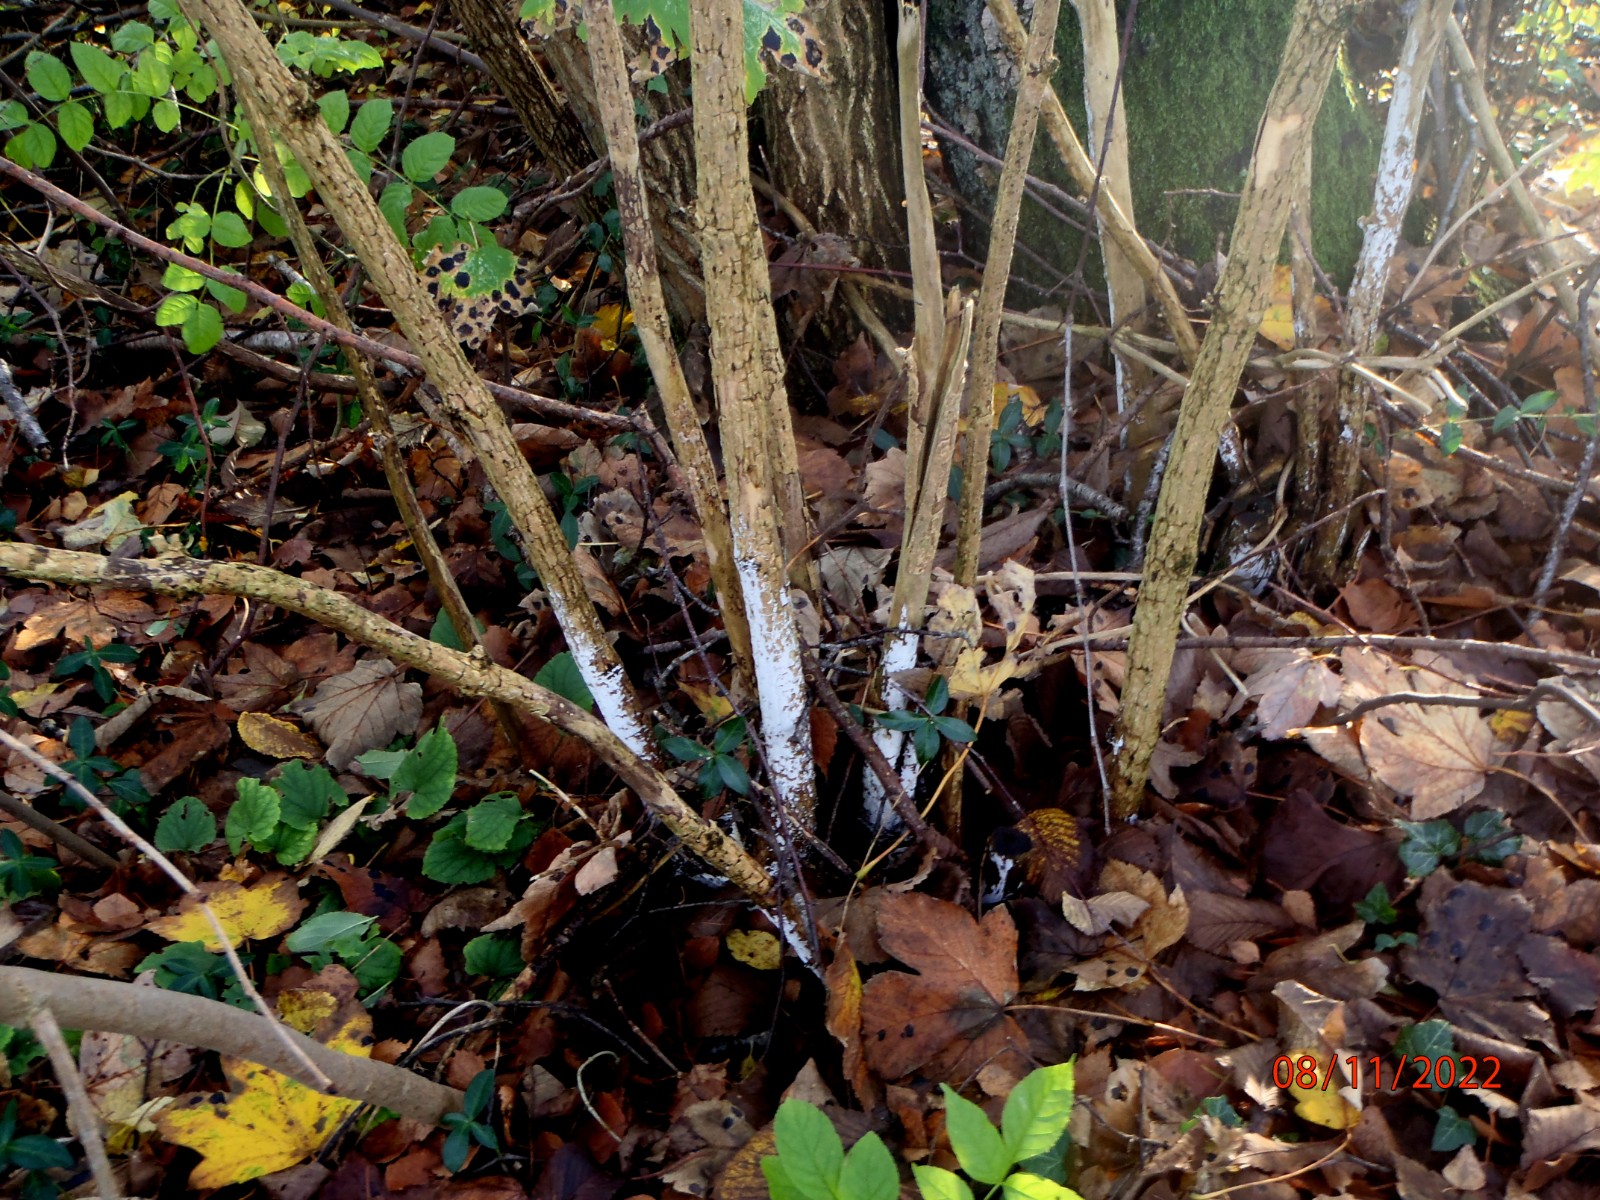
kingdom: Fungi
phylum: Basidiomycota
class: Agaricomycetes
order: Corticiales
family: Corticiaceae
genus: Lyomyces
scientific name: Lyomyces sambuci
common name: almindelig hyldehinde
